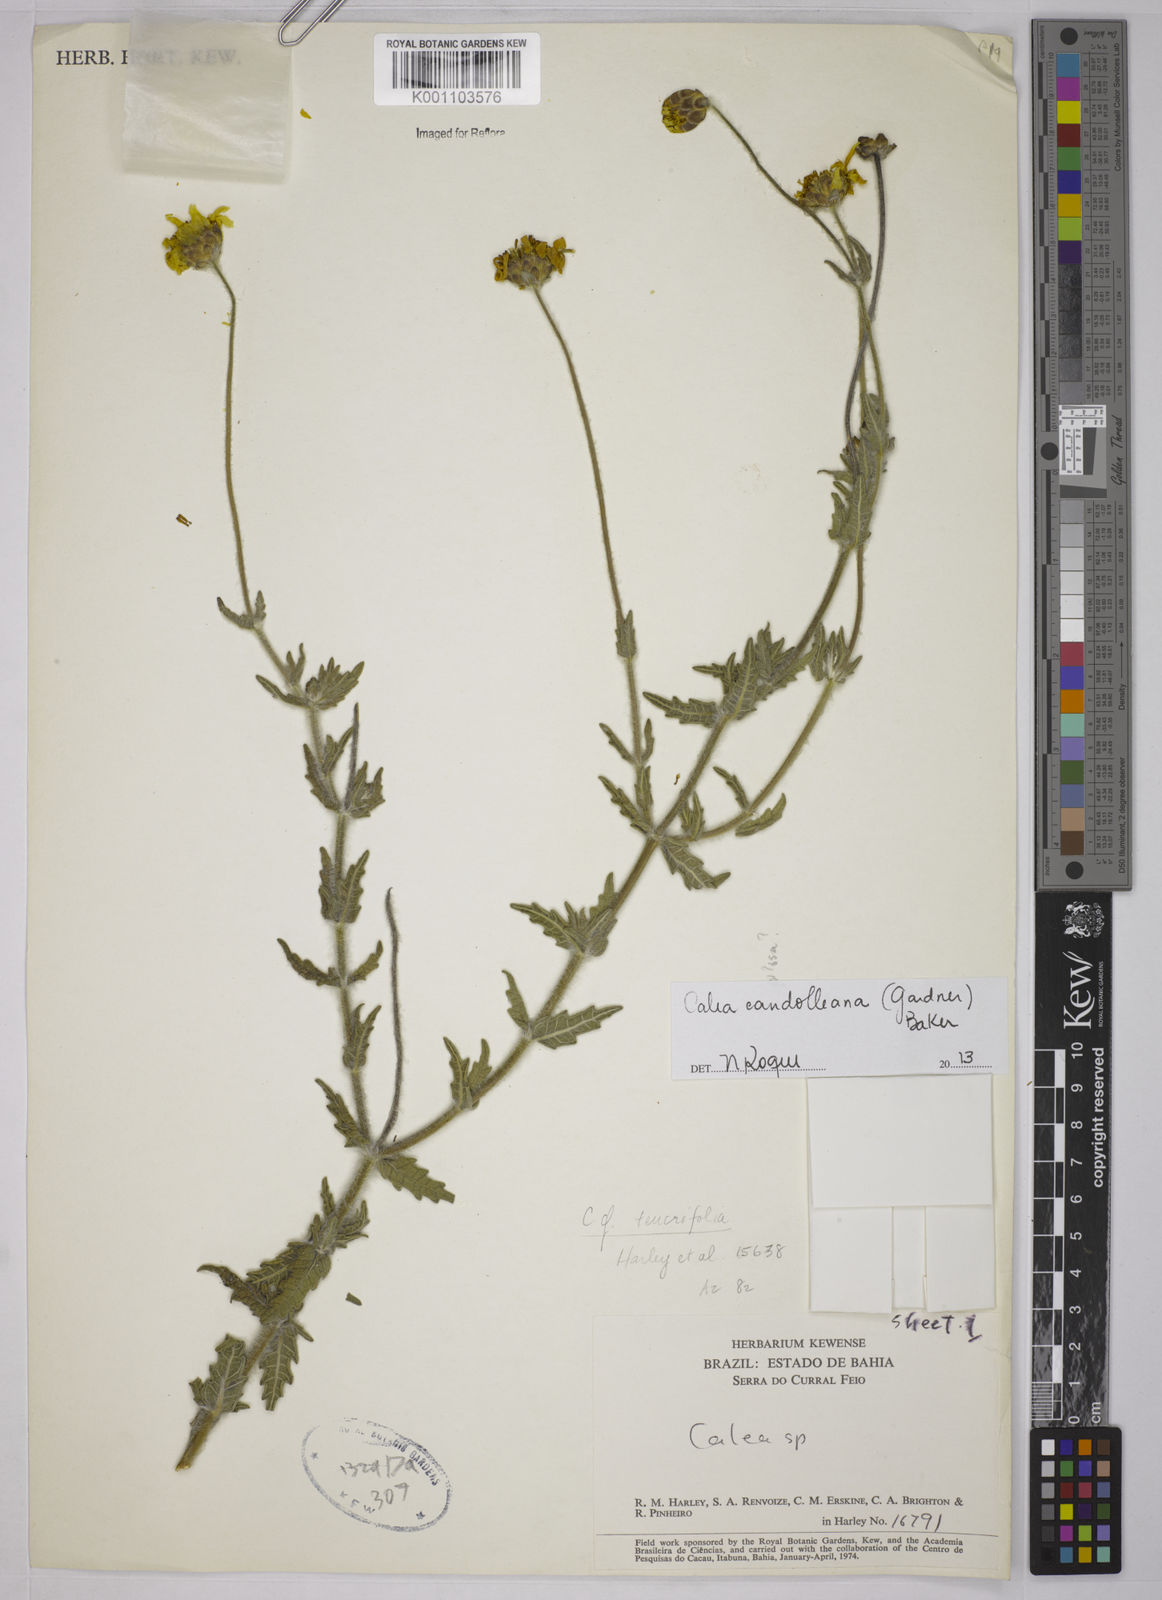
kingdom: Plantae
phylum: Tracheophyta
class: Magnoliopsida
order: Asterales
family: Asteraceae
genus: Calea
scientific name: Calea candolleana
